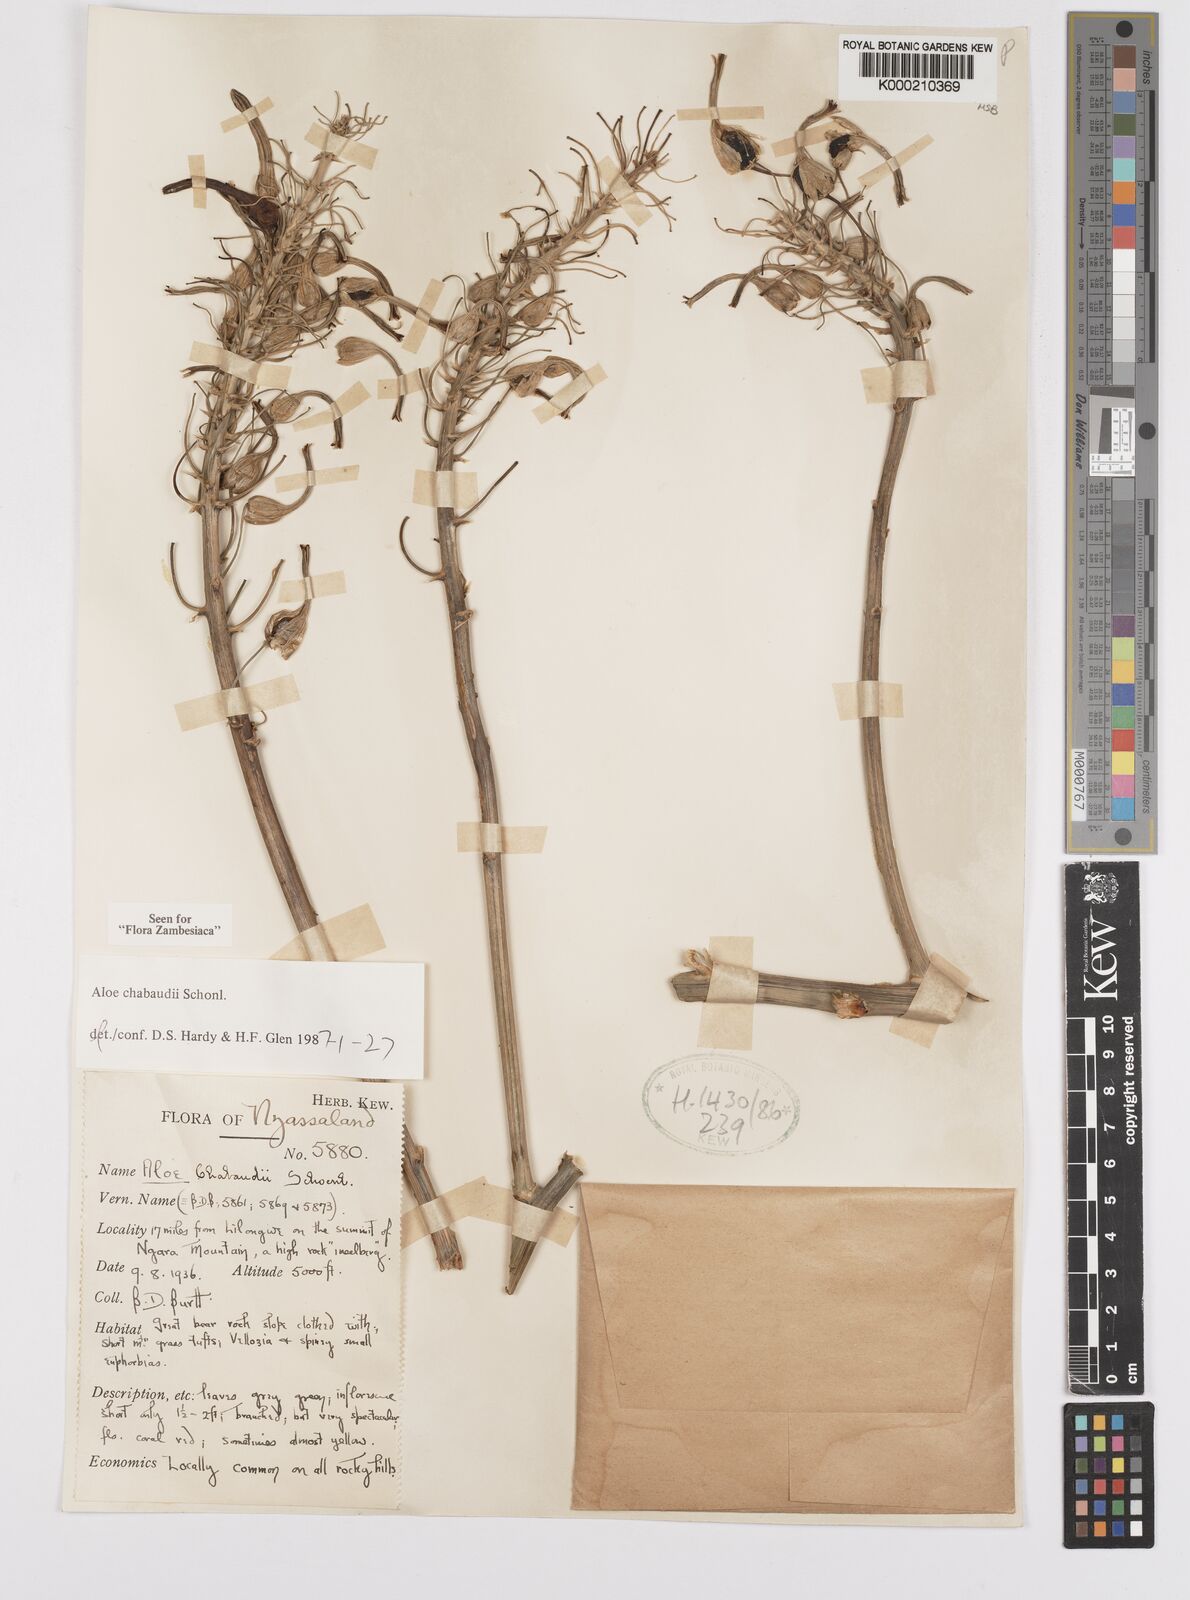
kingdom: Plantae
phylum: Tracheophyta
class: Liliopsida
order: Asparagales
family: Asphodelaceae
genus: Aloe
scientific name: Aloe chabaudii
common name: Chabaud's aloe
